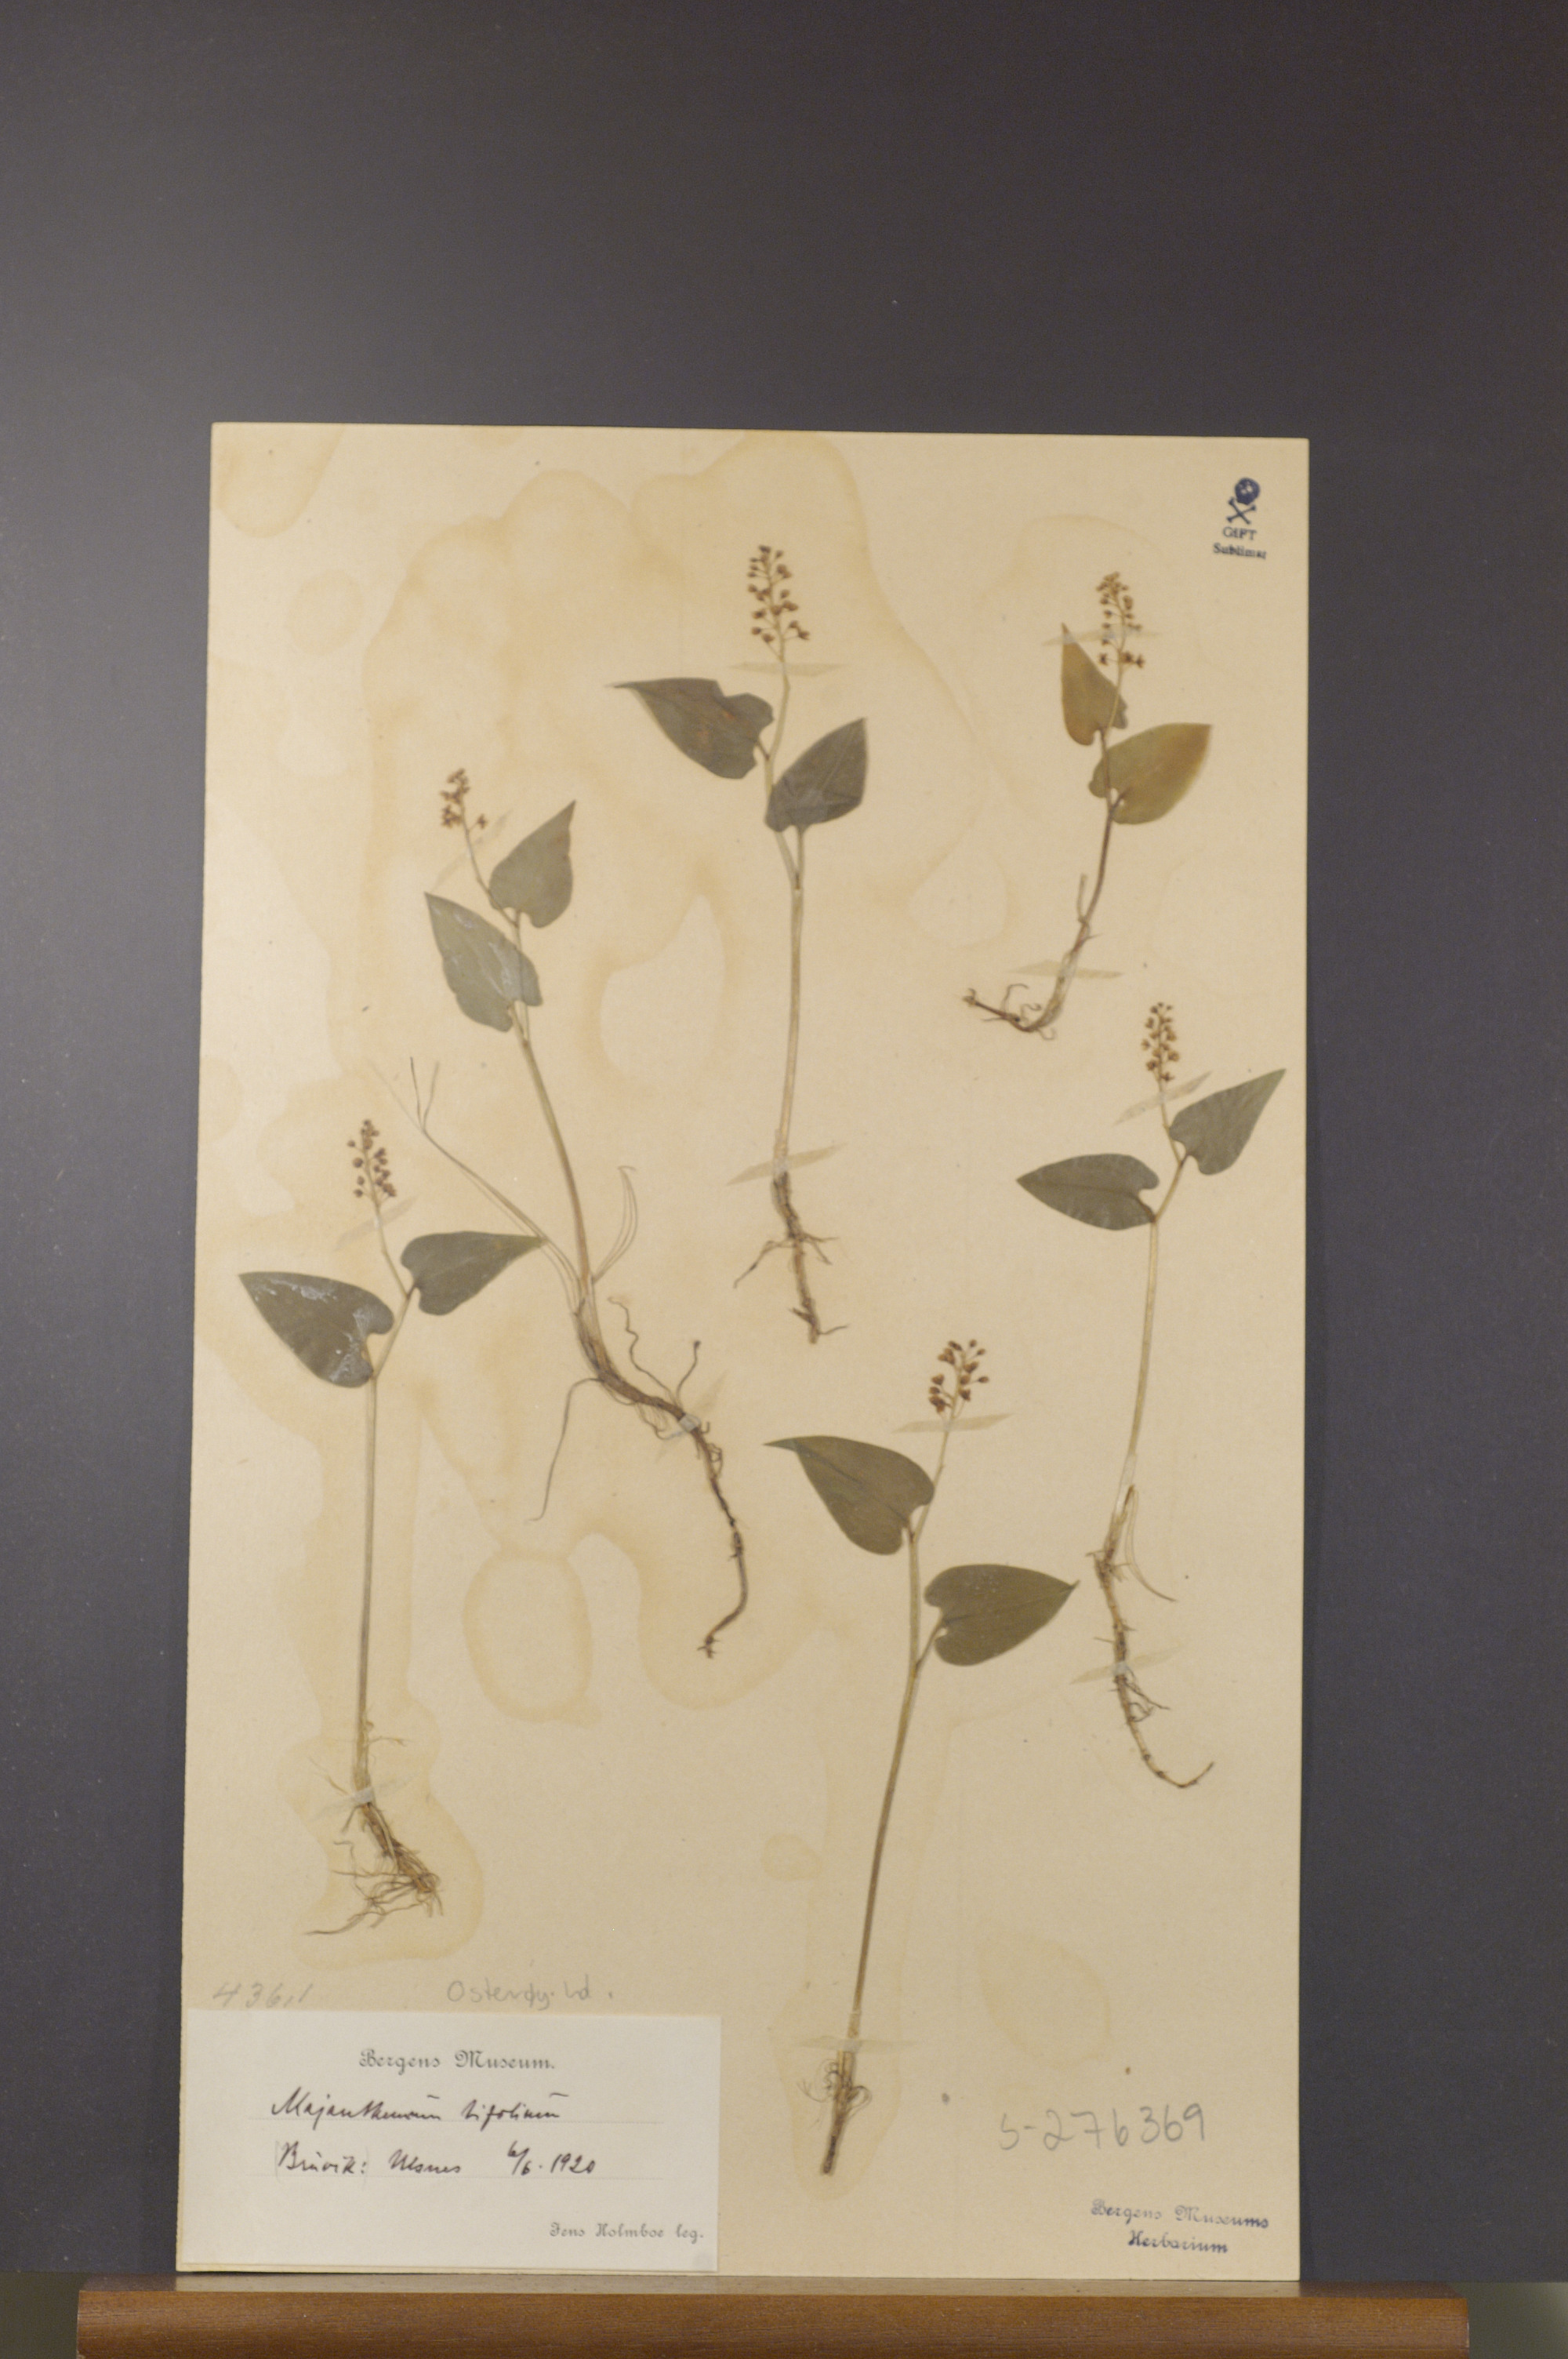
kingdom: Plantae
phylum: Tracheophyta
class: Liliopsida
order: Asparagales
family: Asparagaceae
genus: Maianthemum
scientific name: Maianthemum bifolium
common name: May lily
